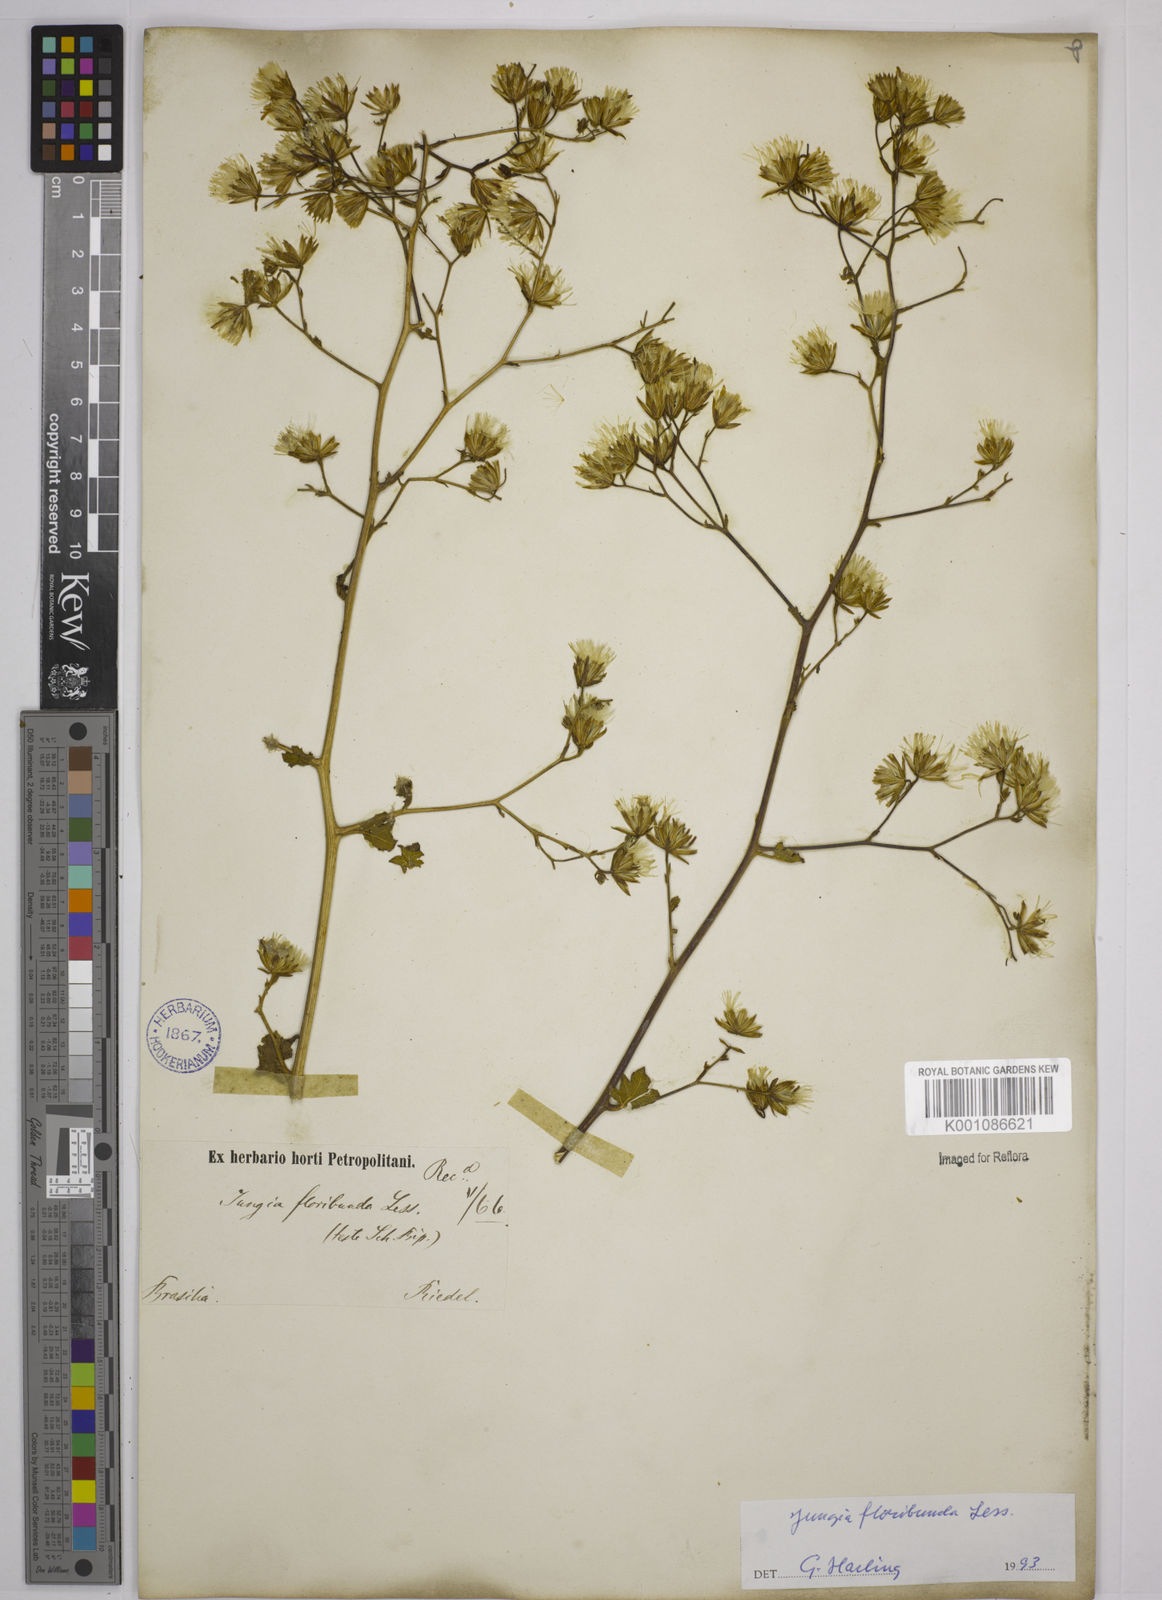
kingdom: Plantae
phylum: Tracheophyta
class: Magnoliopsida
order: Asterales
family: Asteraceae
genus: Jungia
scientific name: Jungia floribunda
